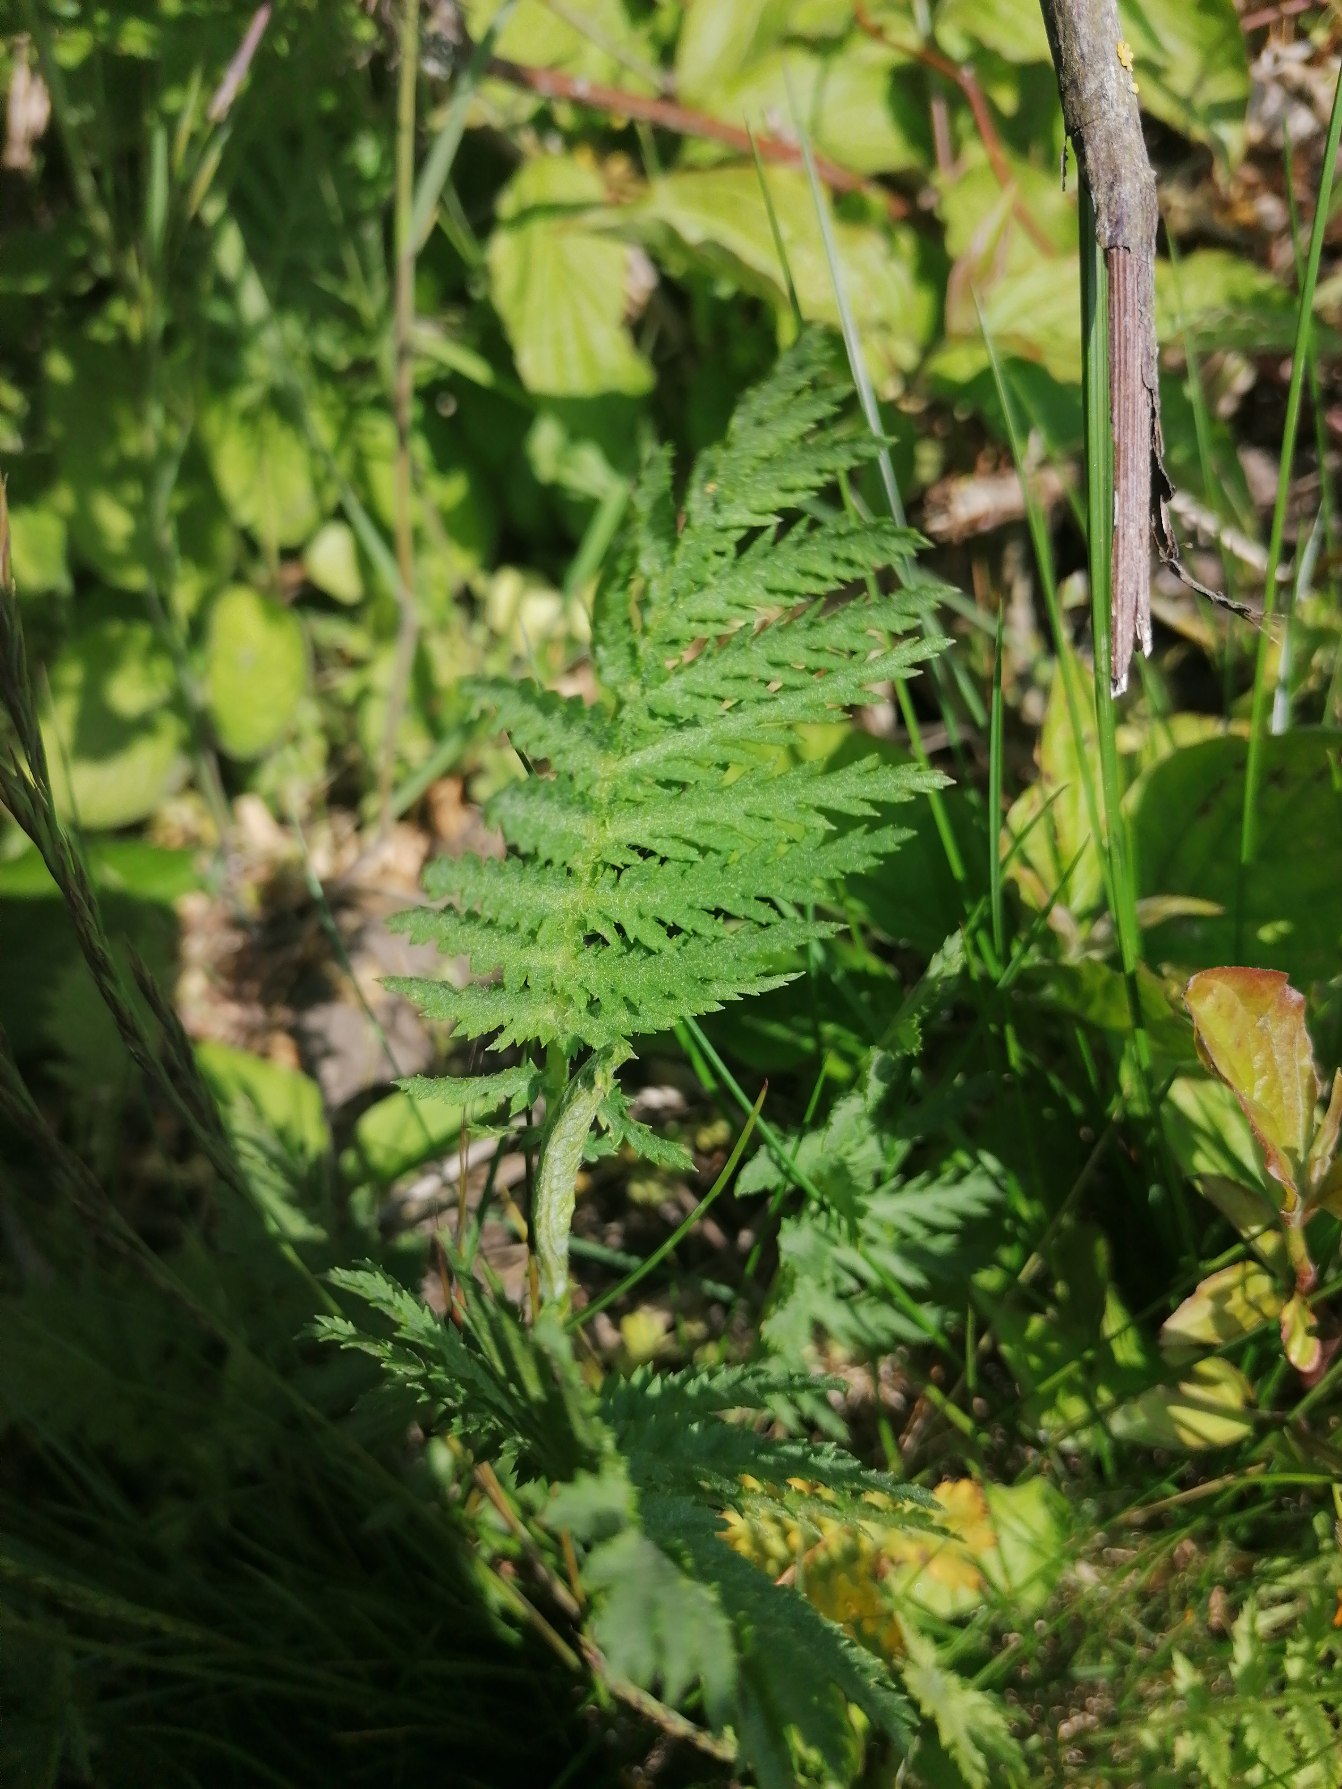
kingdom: Plantae
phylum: Tracheophyta
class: Magnoliopsida
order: Asterales
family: Asteraceae
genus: Tanacetum
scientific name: Tanacetum vulgare
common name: Rejnfan
